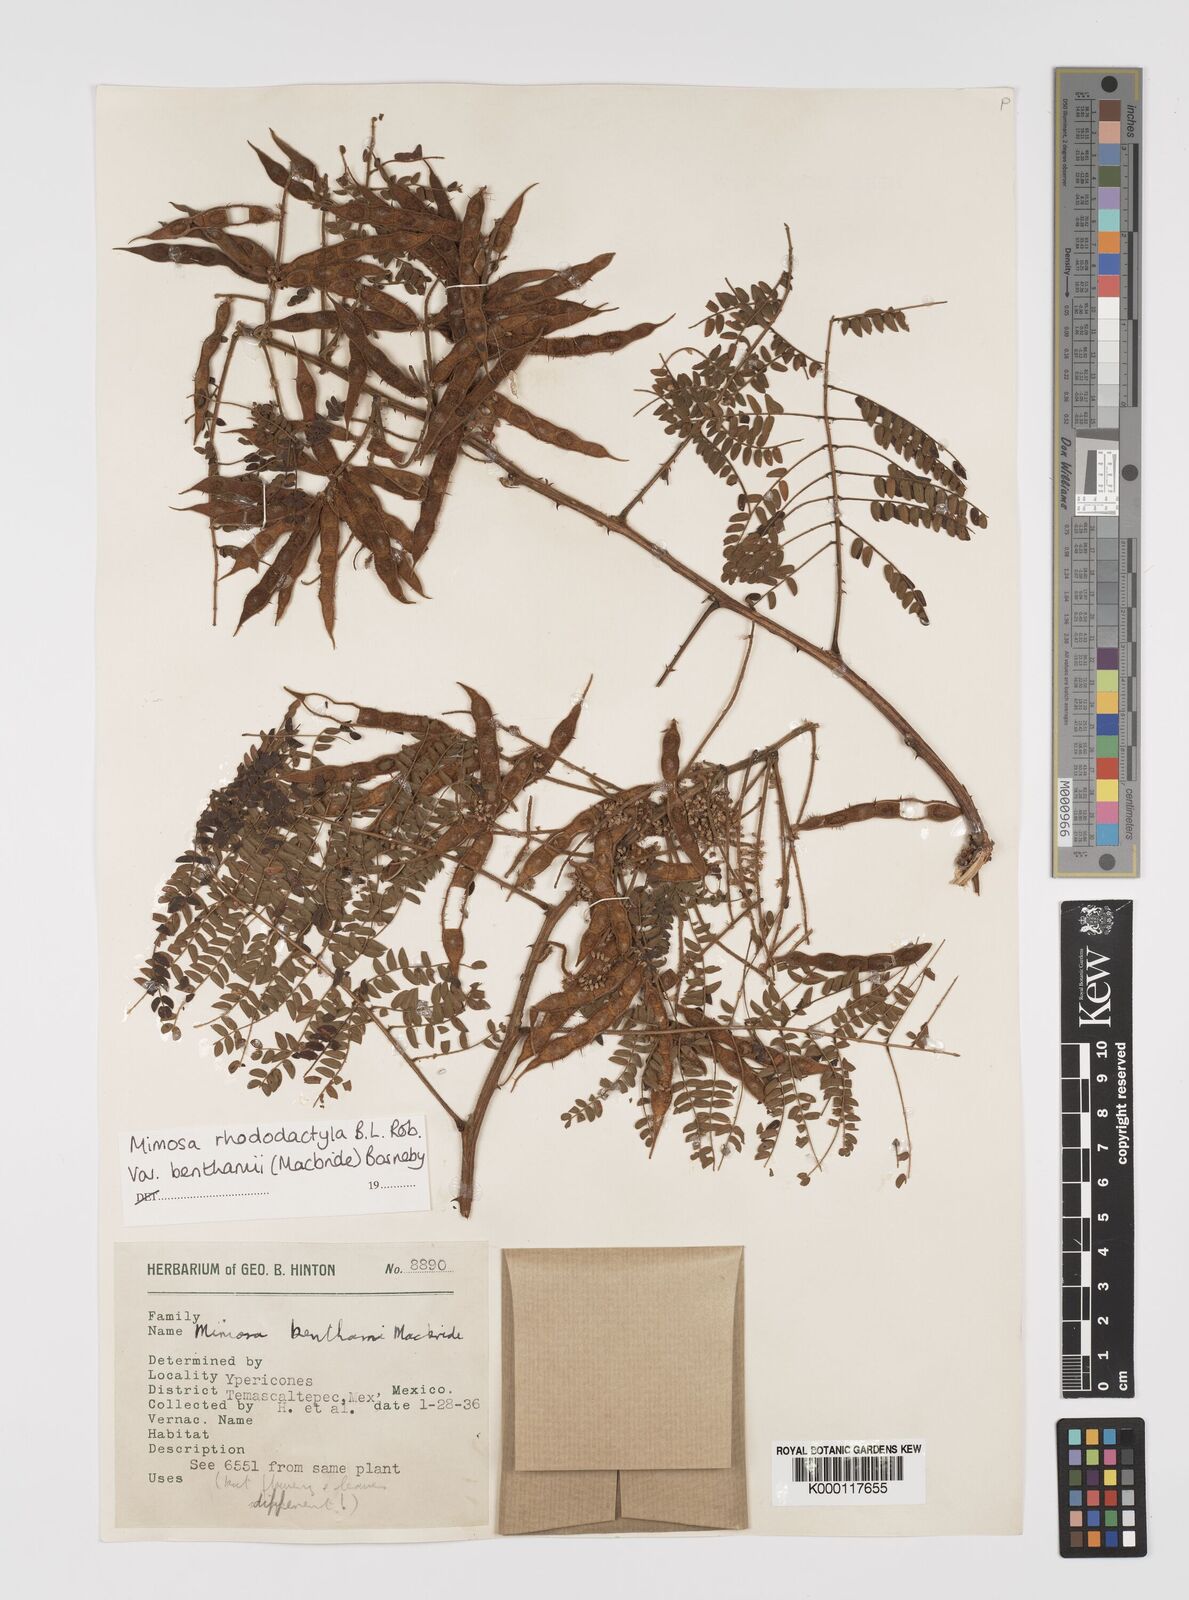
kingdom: Plantae
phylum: Tracheophyta
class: Magnoliopsida
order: Fabales
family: Fabaceae
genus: Mimosa
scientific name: Mimosa benthamii
